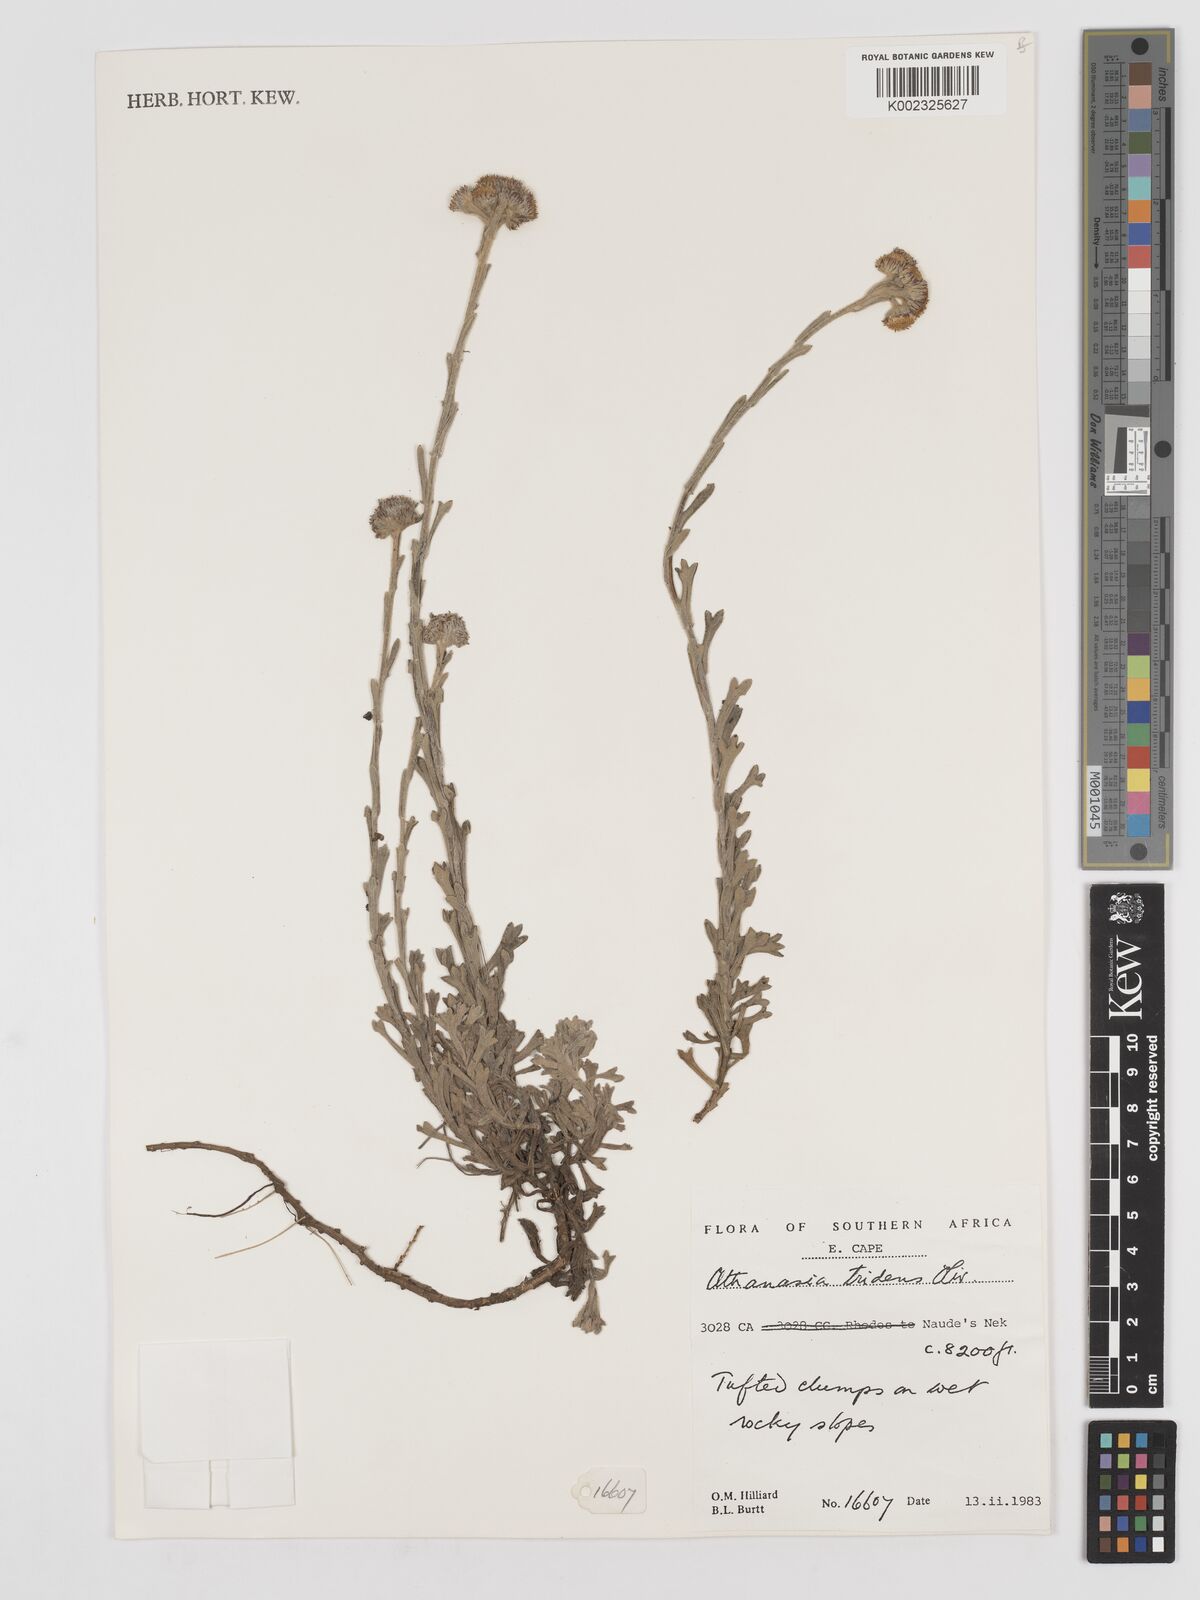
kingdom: Plantae
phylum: Tracheophyta
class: Magnoliopsida
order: Asterales
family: Asteraceae
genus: Inulanthera
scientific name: Inulanthera tridens
